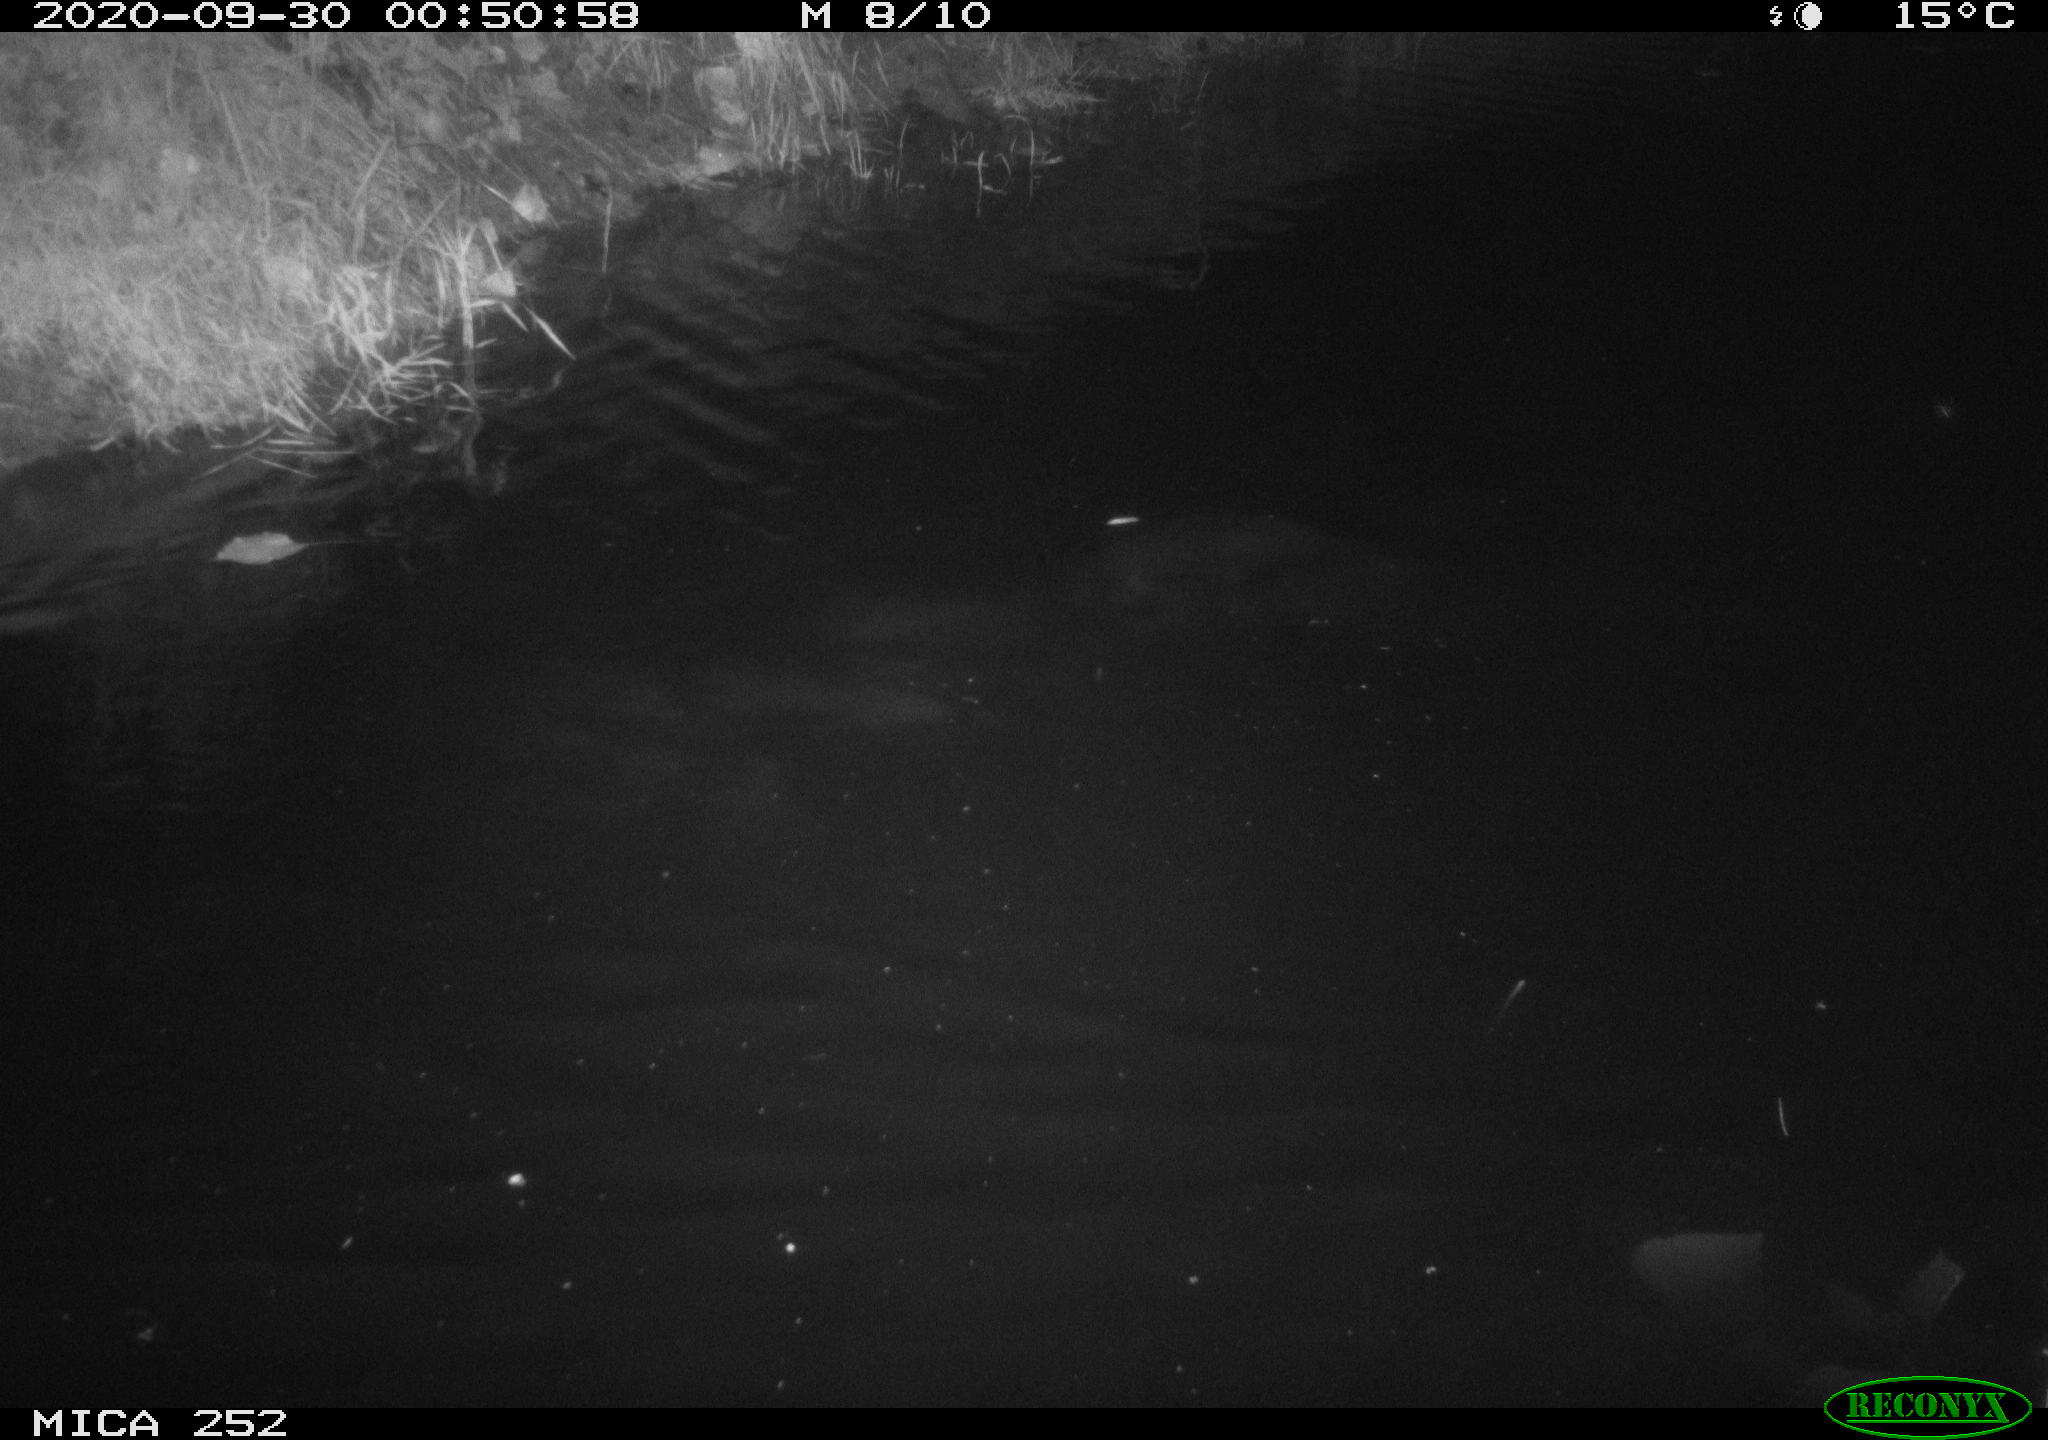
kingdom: Animalia
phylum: Chordata
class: Mammalia
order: Rodentia
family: Castoridae
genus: Castor
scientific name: Castor fiber
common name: Eurasian beaver
